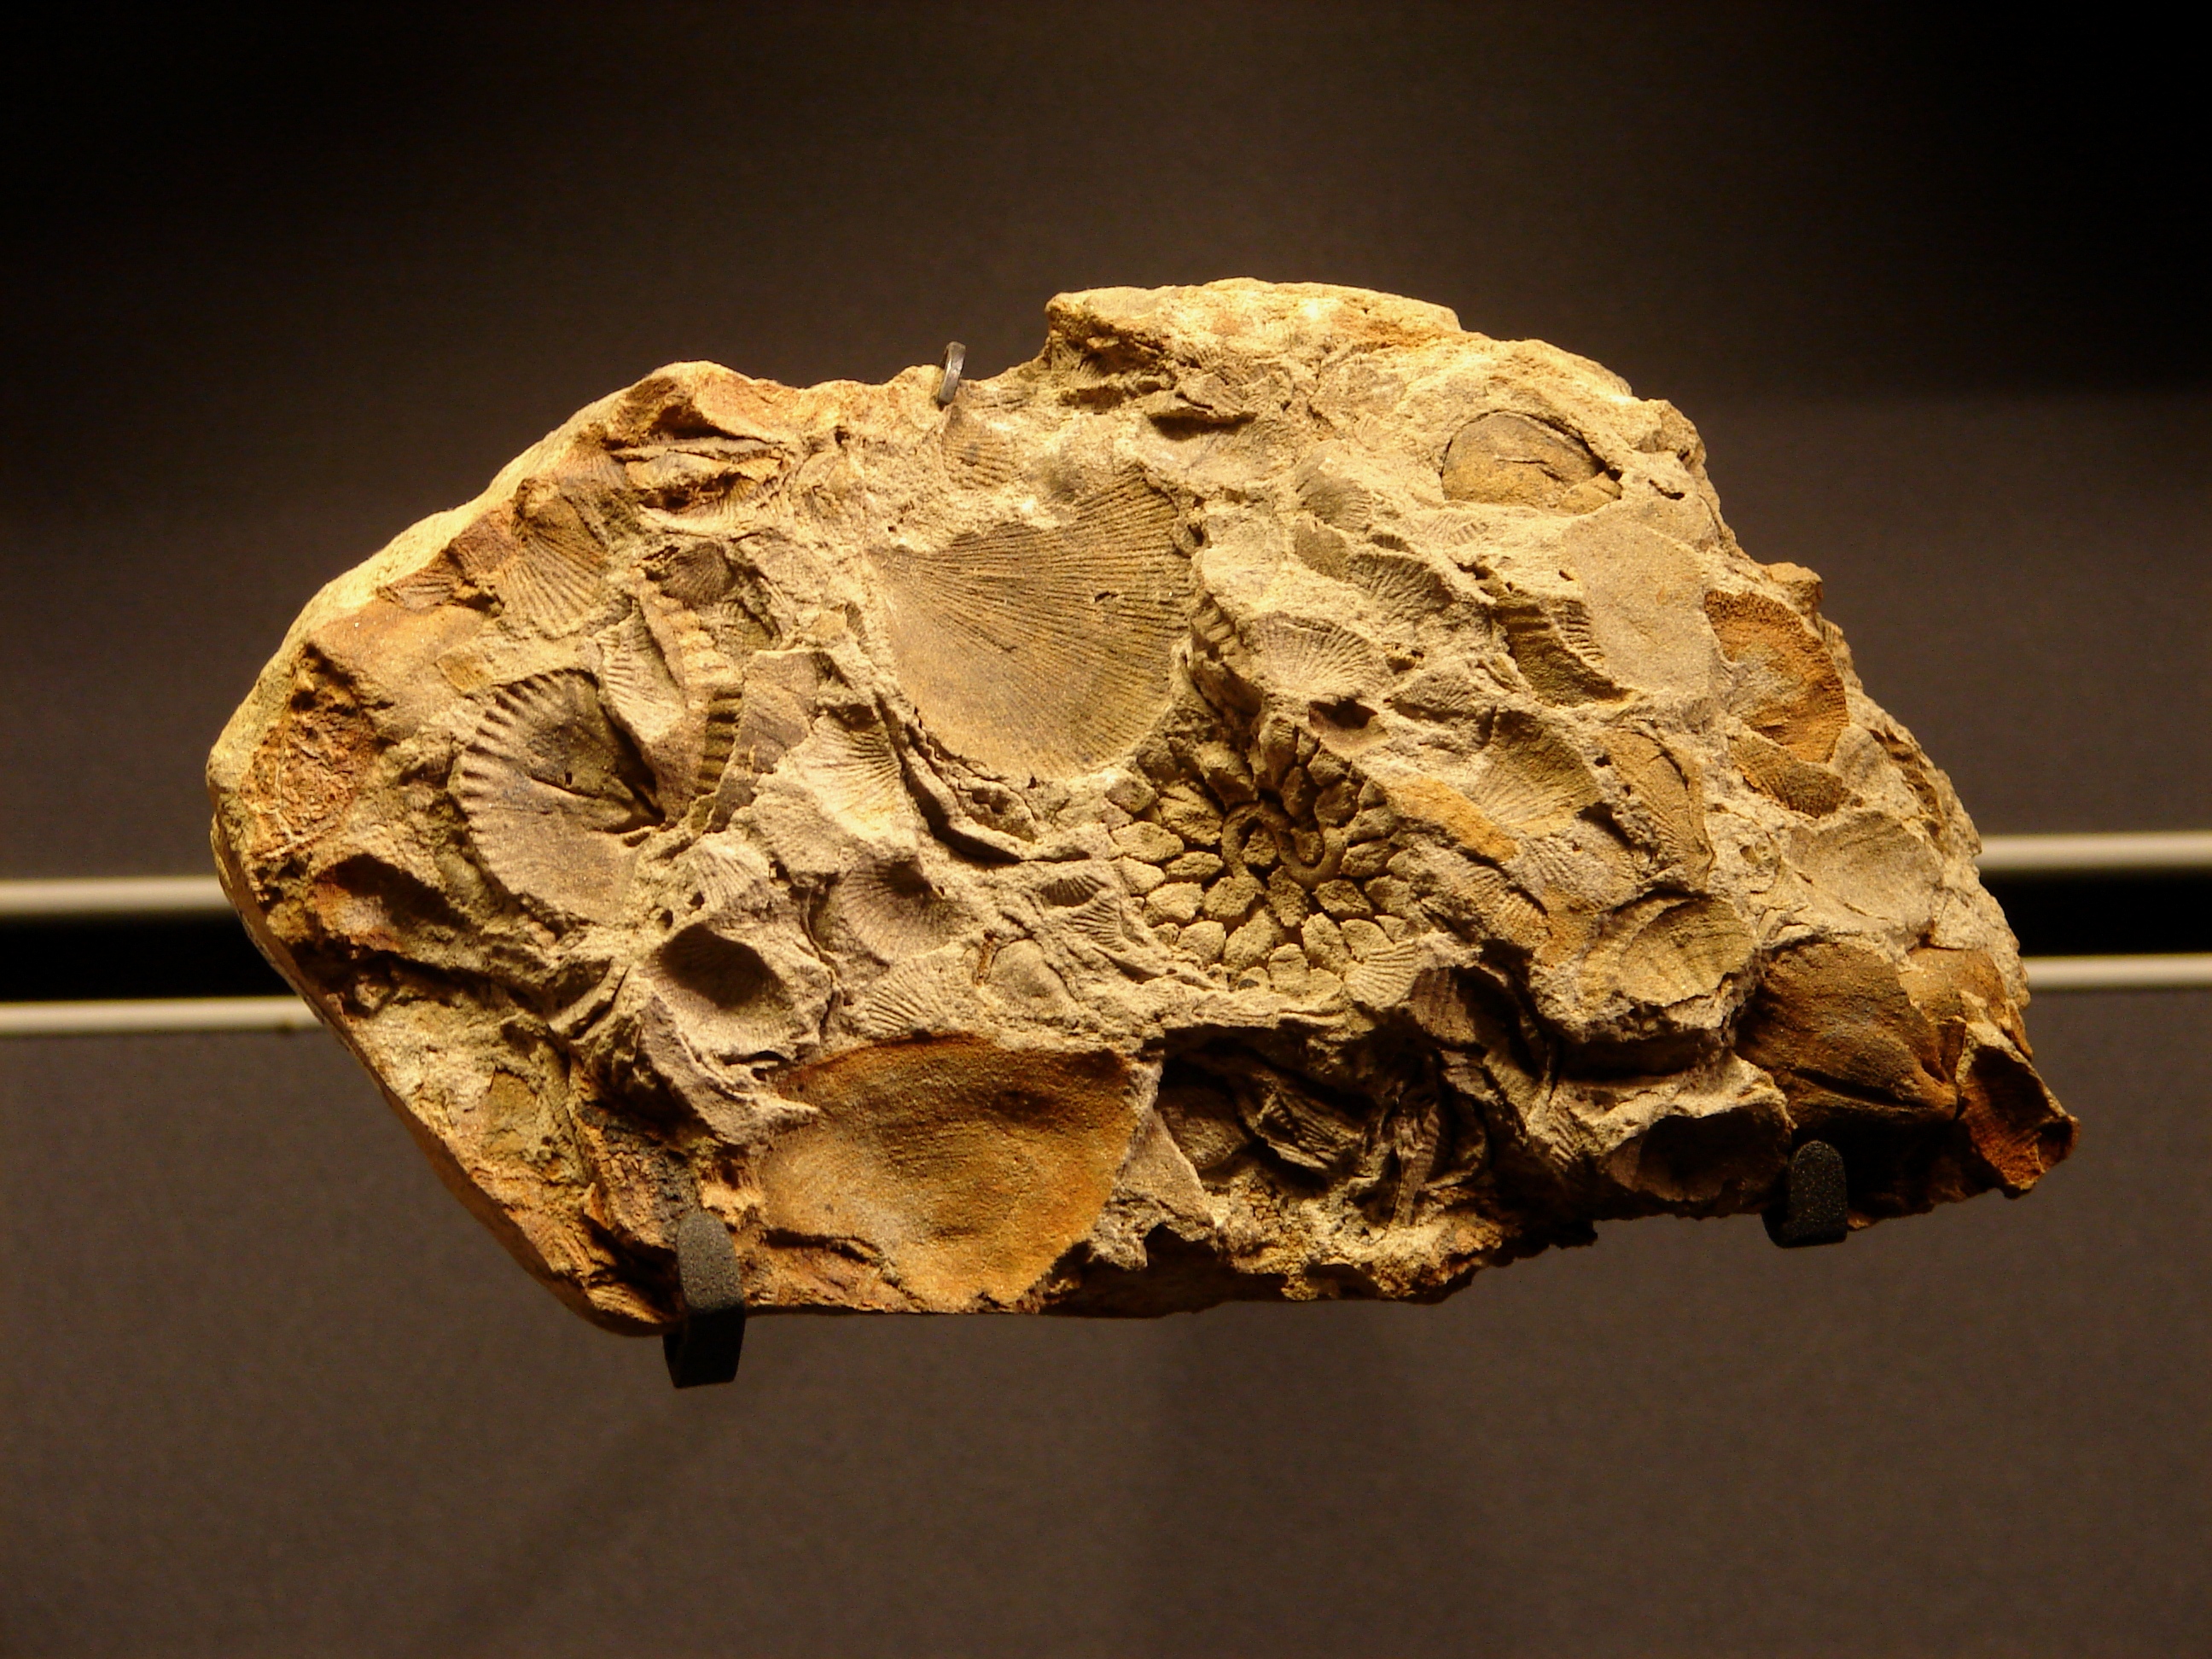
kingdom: Animalia
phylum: Cnidaria
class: Anthozoa
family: Micheliniidae
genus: Pleurodictyum
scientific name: Pleurodictyum
